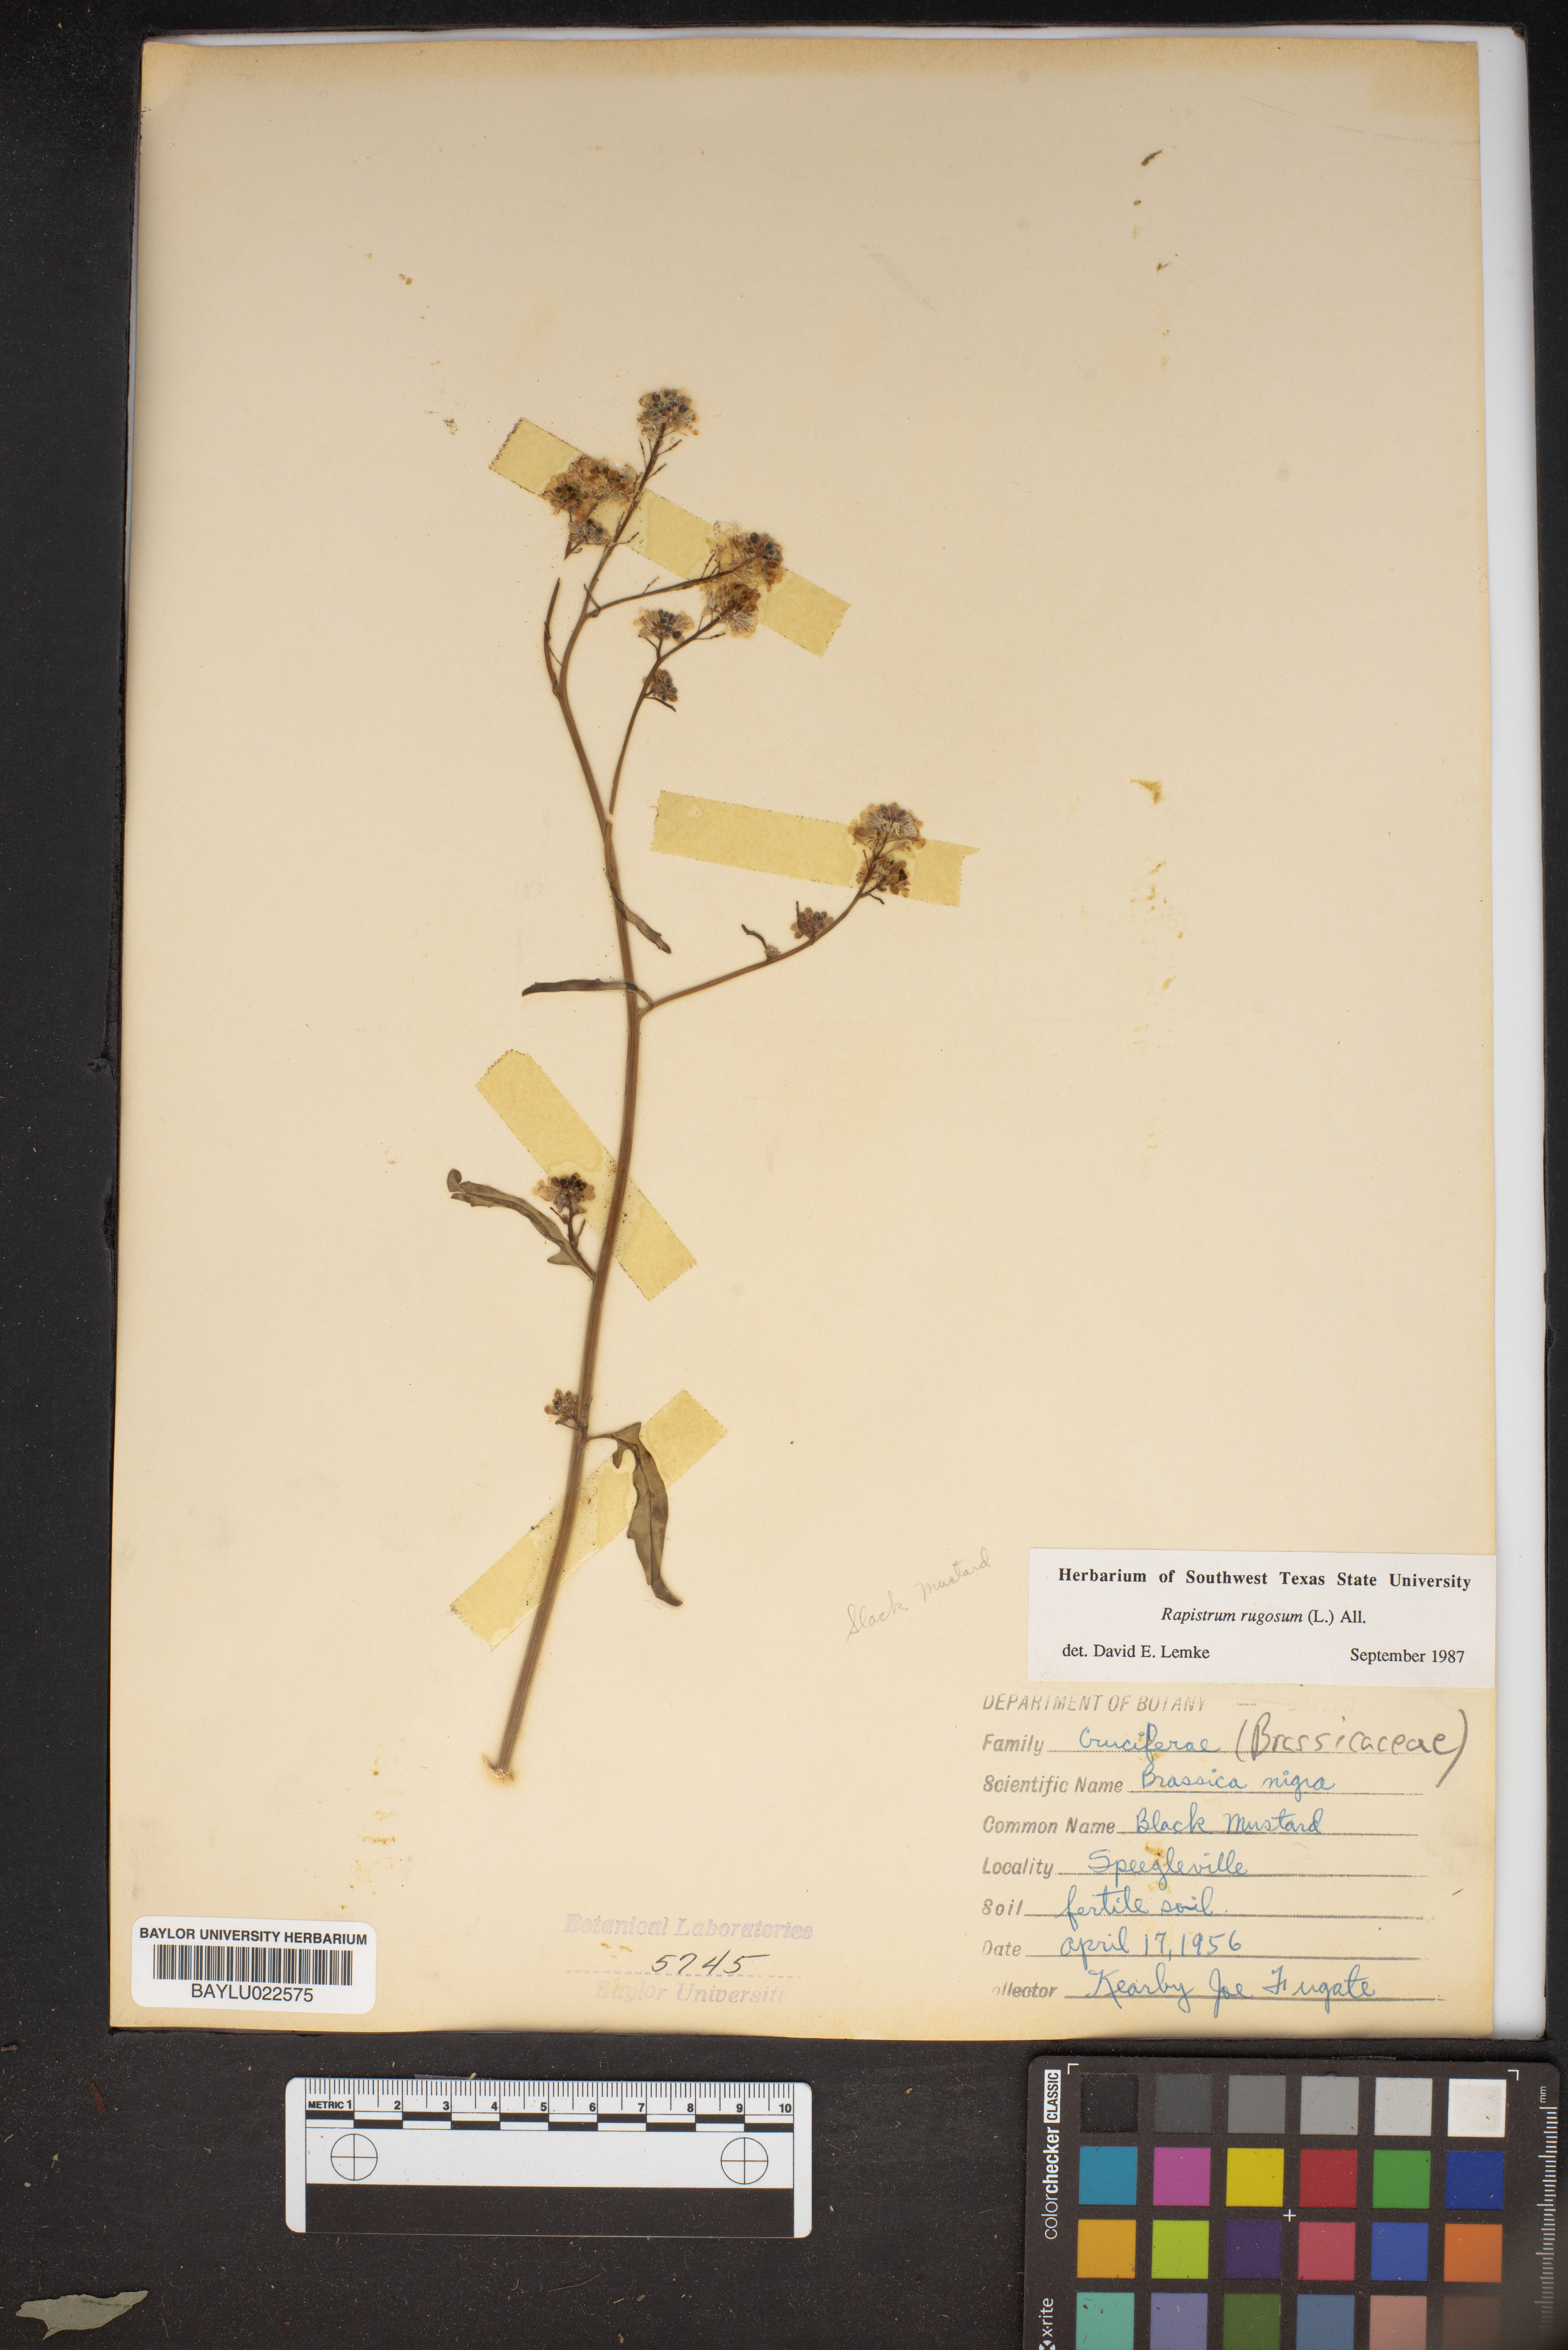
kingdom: Plantae
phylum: Tracheophyta
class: Magnoliopsida
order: Brassicales
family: Brassicaceae
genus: Rapistrum
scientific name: Rapistrum rugosum
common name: Annual bastardcabbage
